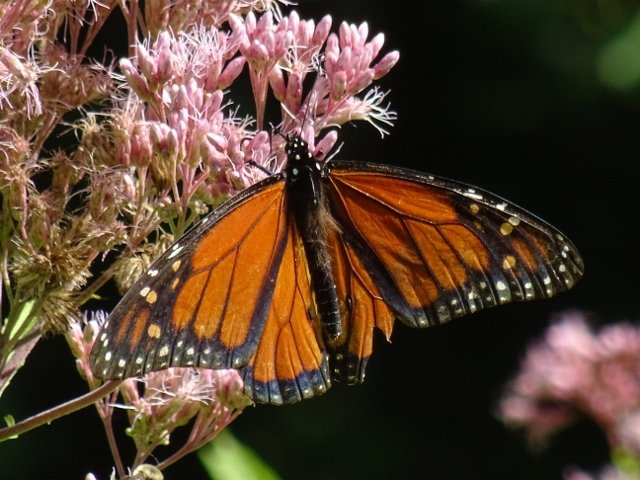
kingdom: Animalia
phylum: Arthropoda
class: Insecta
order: Lepidoptera
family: Nymphalidae
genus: Danaus
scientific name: Danaus plexippus
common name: Monarch
